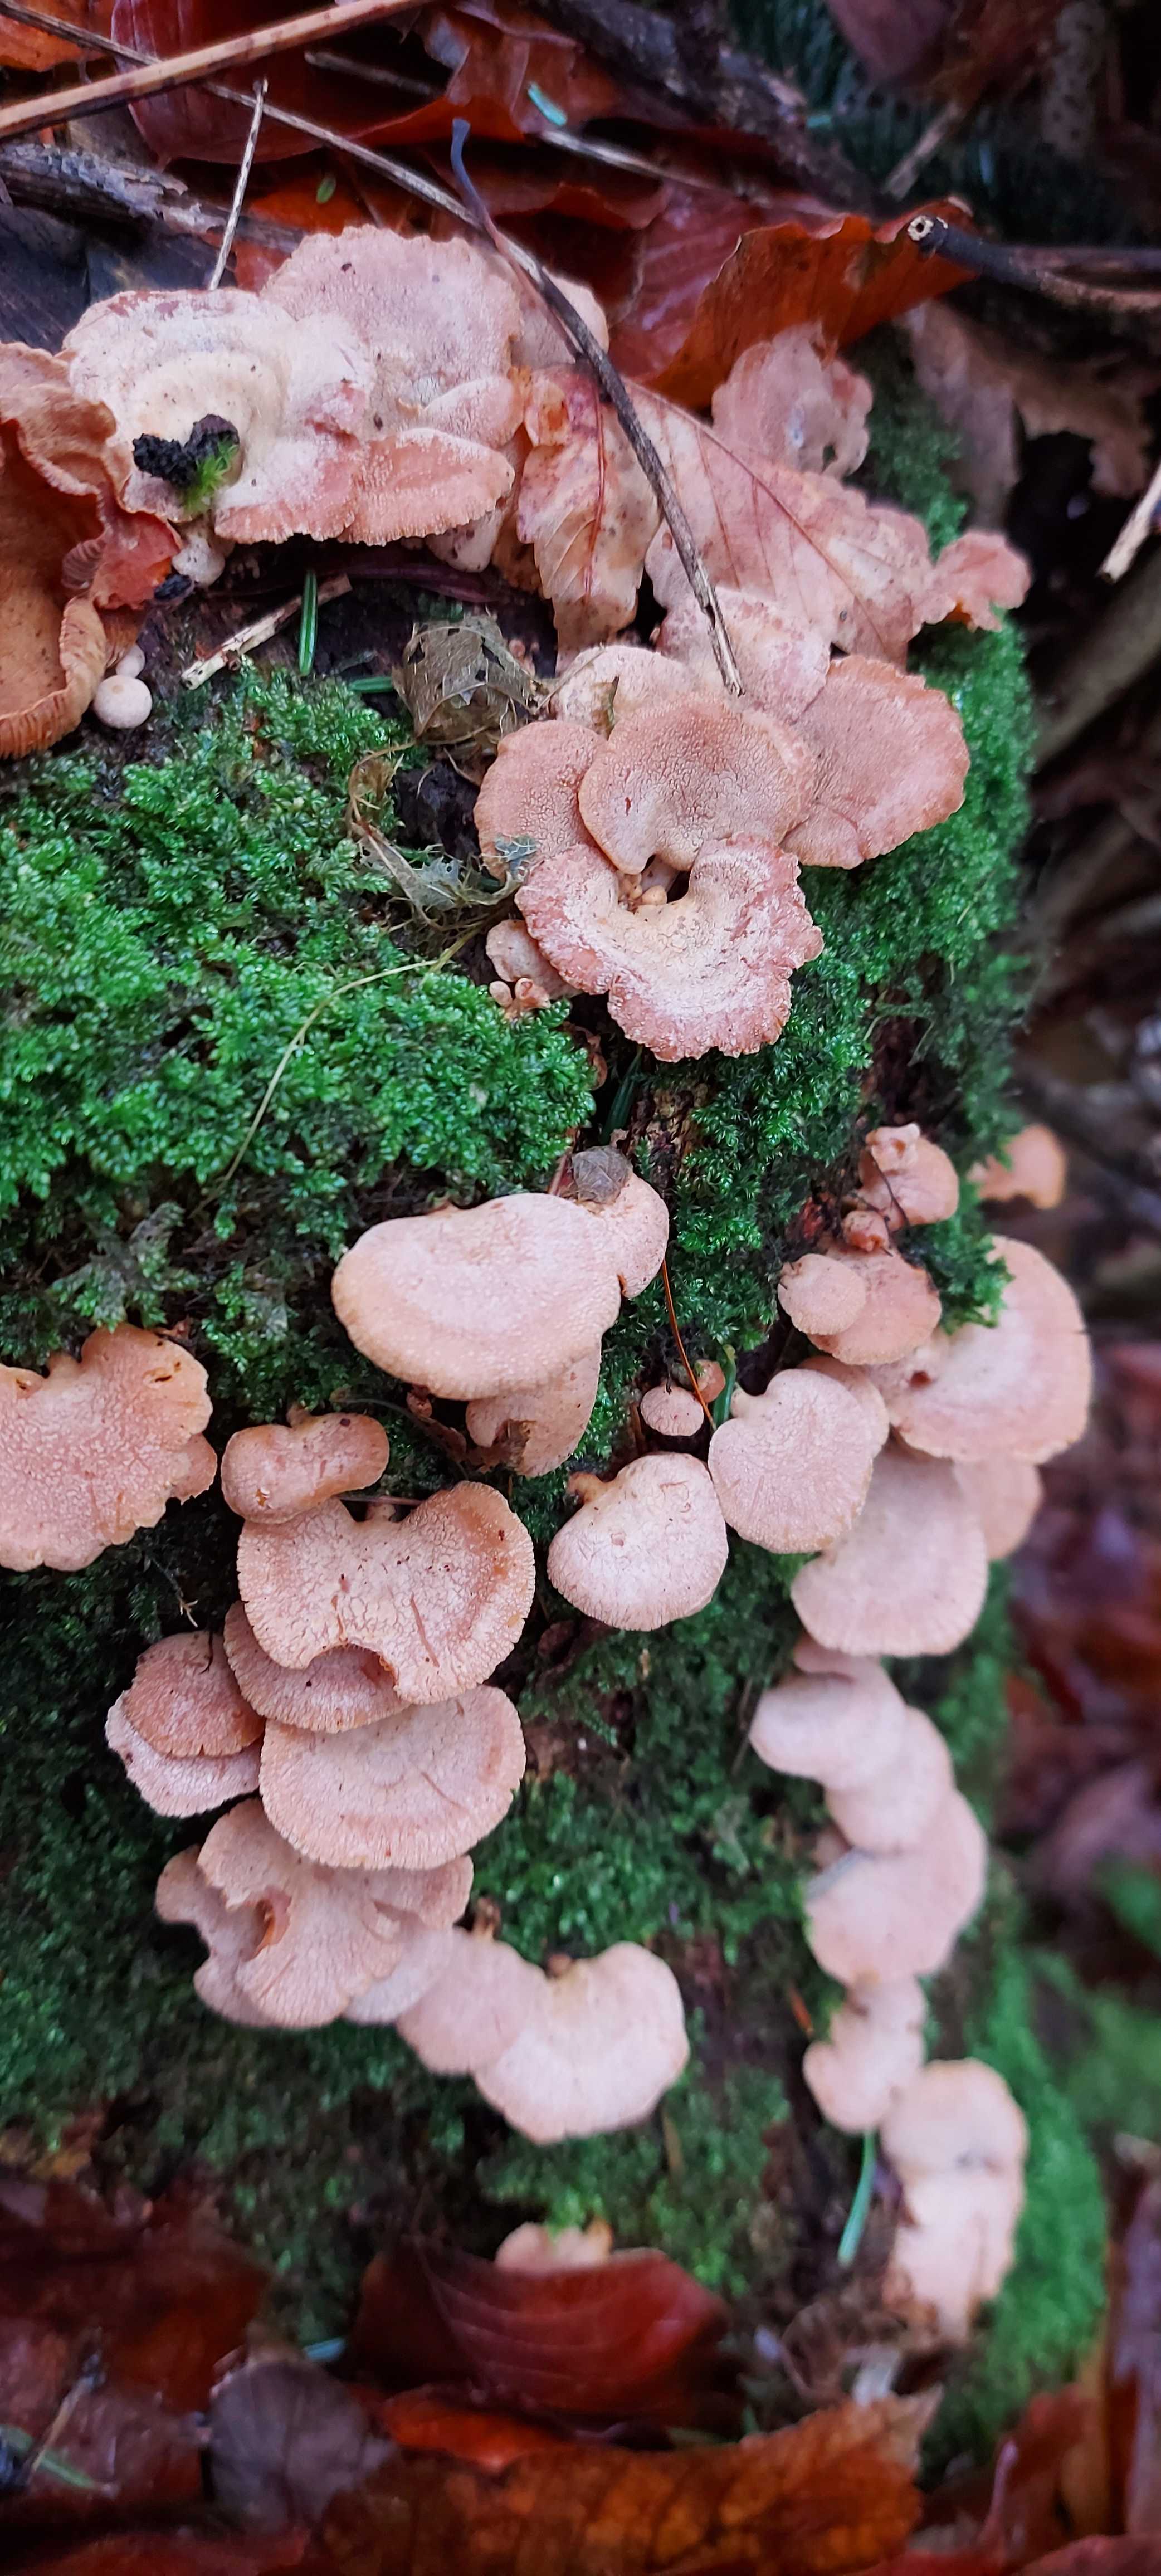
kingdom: Fungi
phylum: Basidiomycota
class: Agaricomycetes
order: Agaricales
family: Mycenaceae
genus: Panellus
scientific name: Panellus stipticus
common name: kliddet epaulethat
